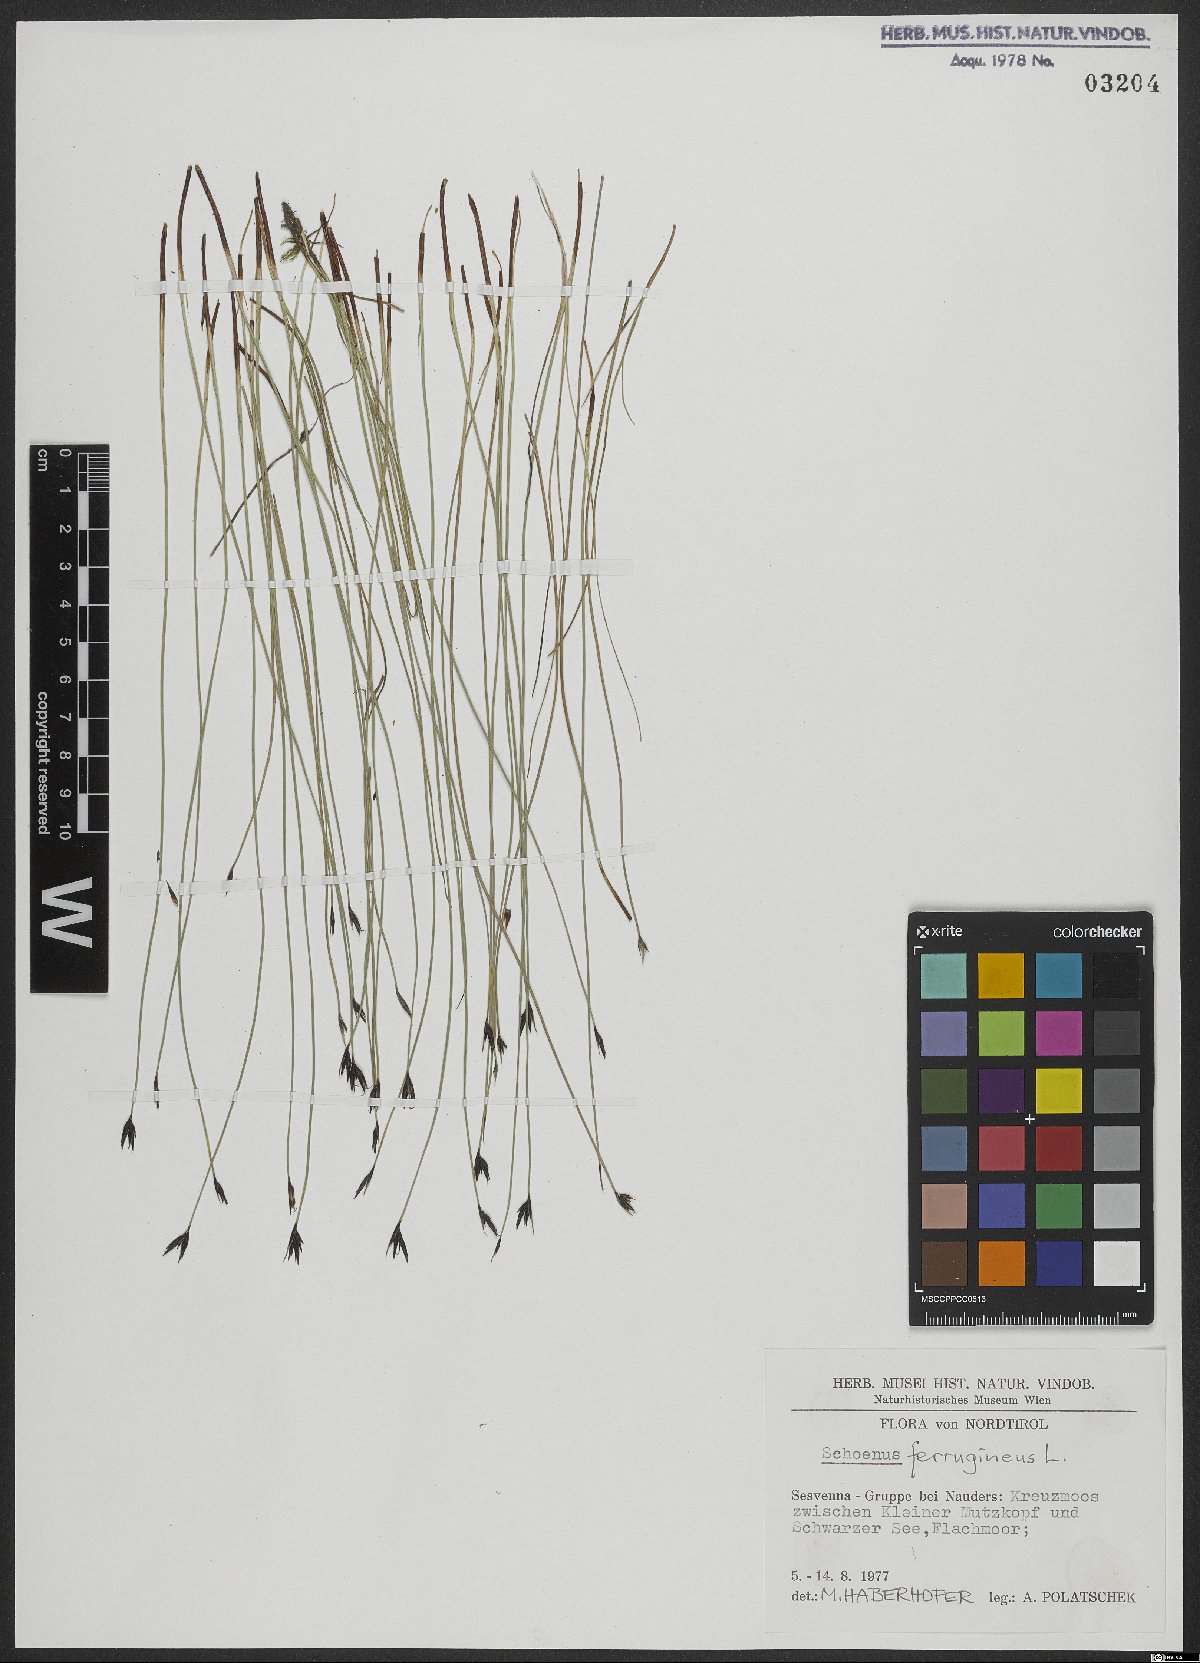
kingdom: Plantae
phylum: Tracheophyta
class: Liliopsida
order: Poales
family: Cyperaceae
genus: Schoenus
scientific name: Schoenus ferrugineus
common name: Brown bog-rush
